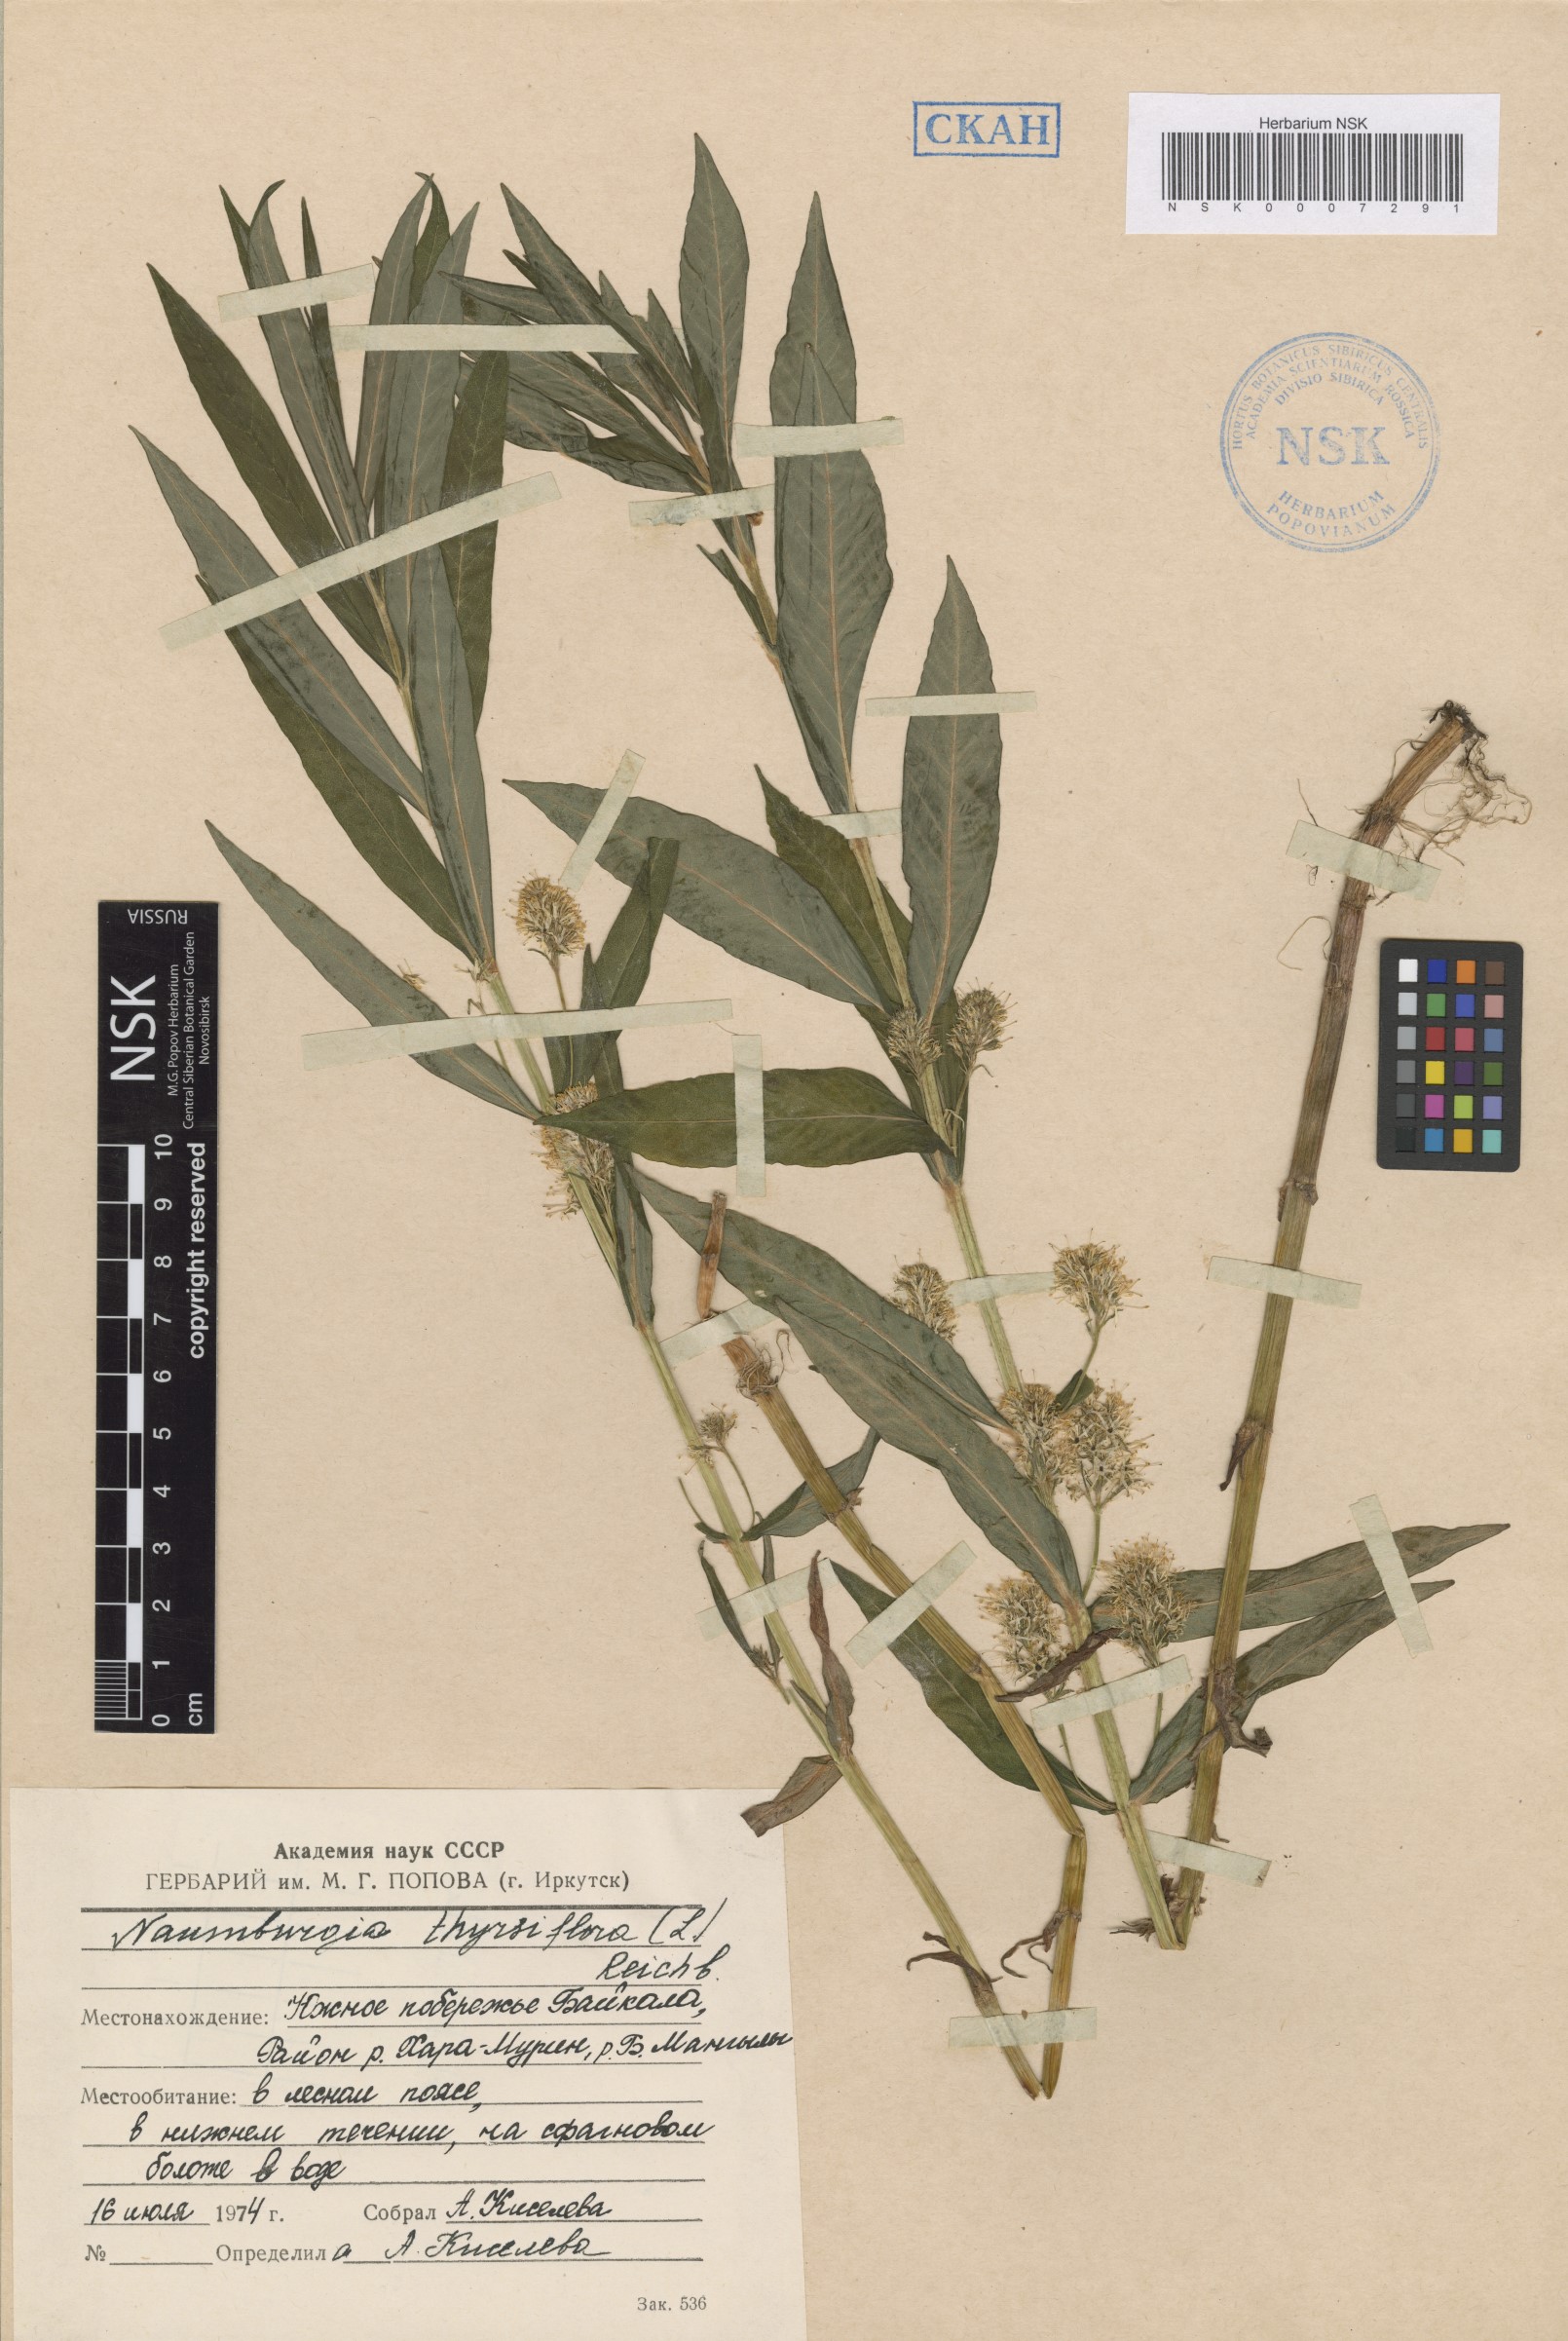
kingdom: Plantae
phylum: Tracheophyta
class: Magnoliopsida
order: Ericales
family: Primulaceae
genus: Lysimachia
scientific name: Lysimachia thyrsiflora
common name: Tufted loosestrife
